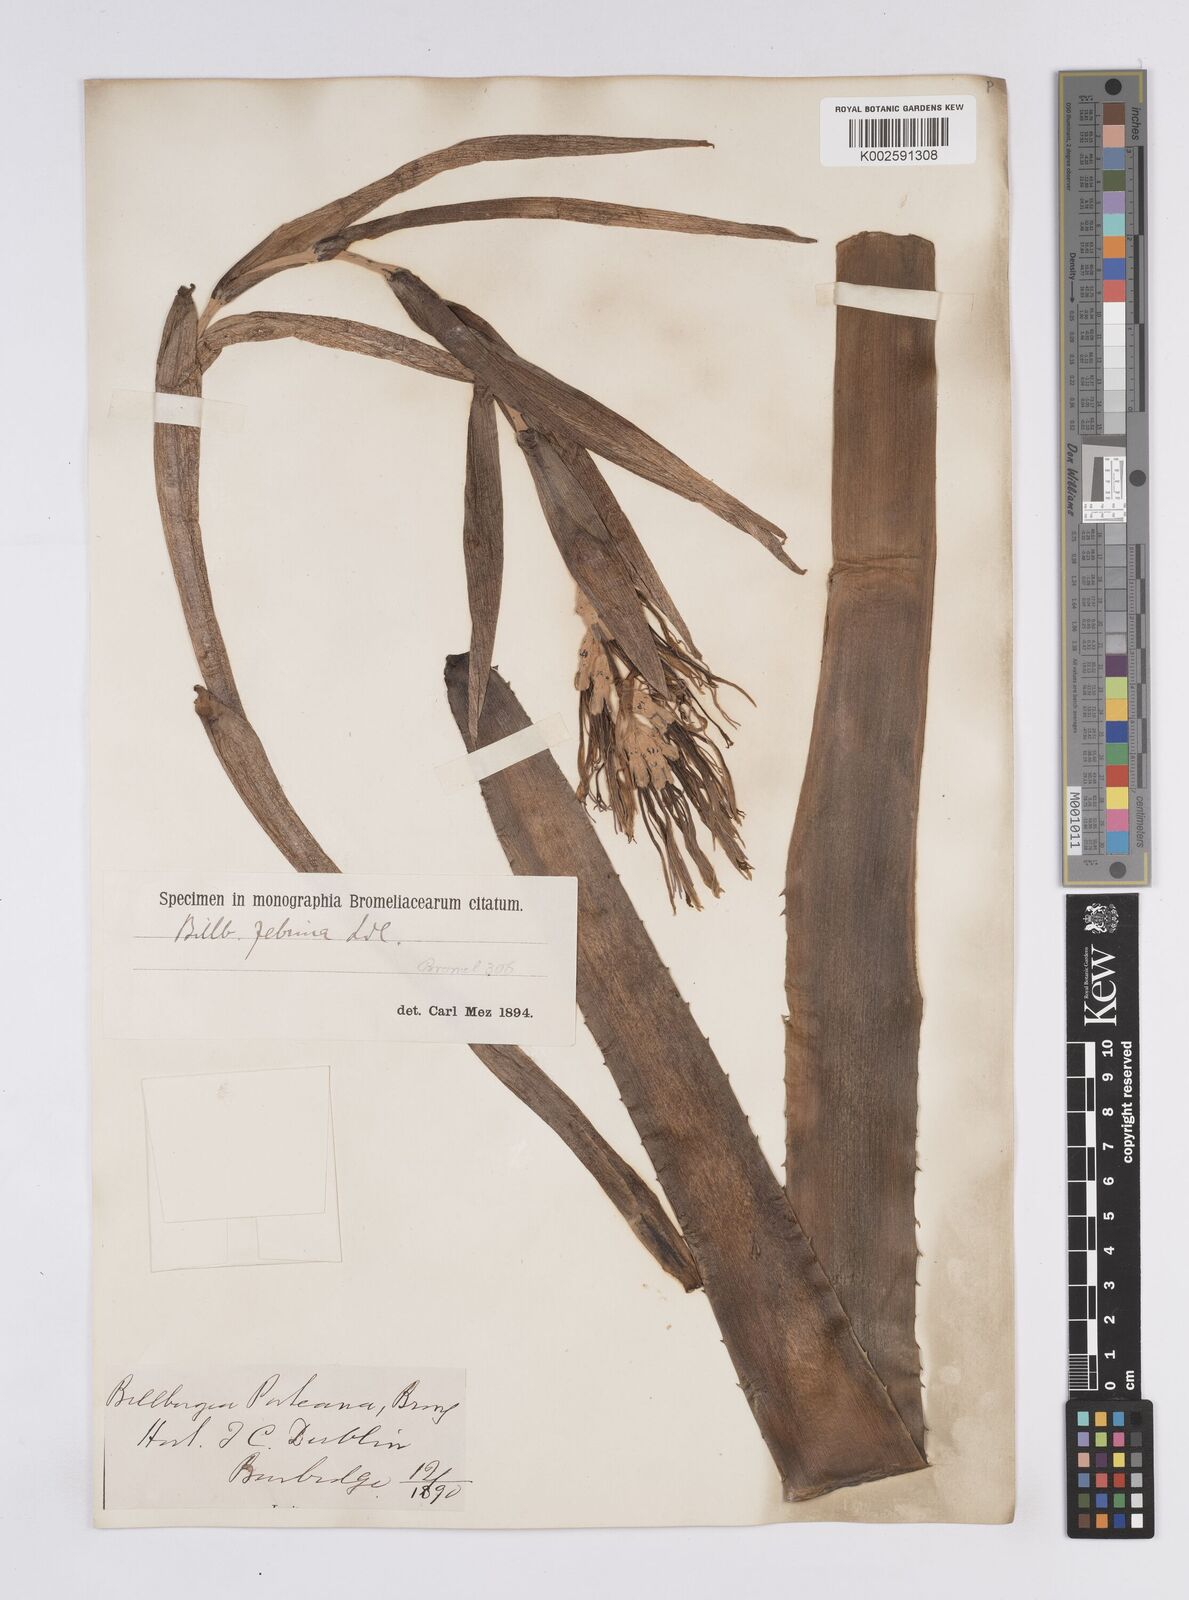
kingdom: Plantae
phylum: Tracheophyta
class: Liliopsida
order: Poales
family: Bromeliaceae
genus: Billbergia
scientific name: Billbergia zebrina
